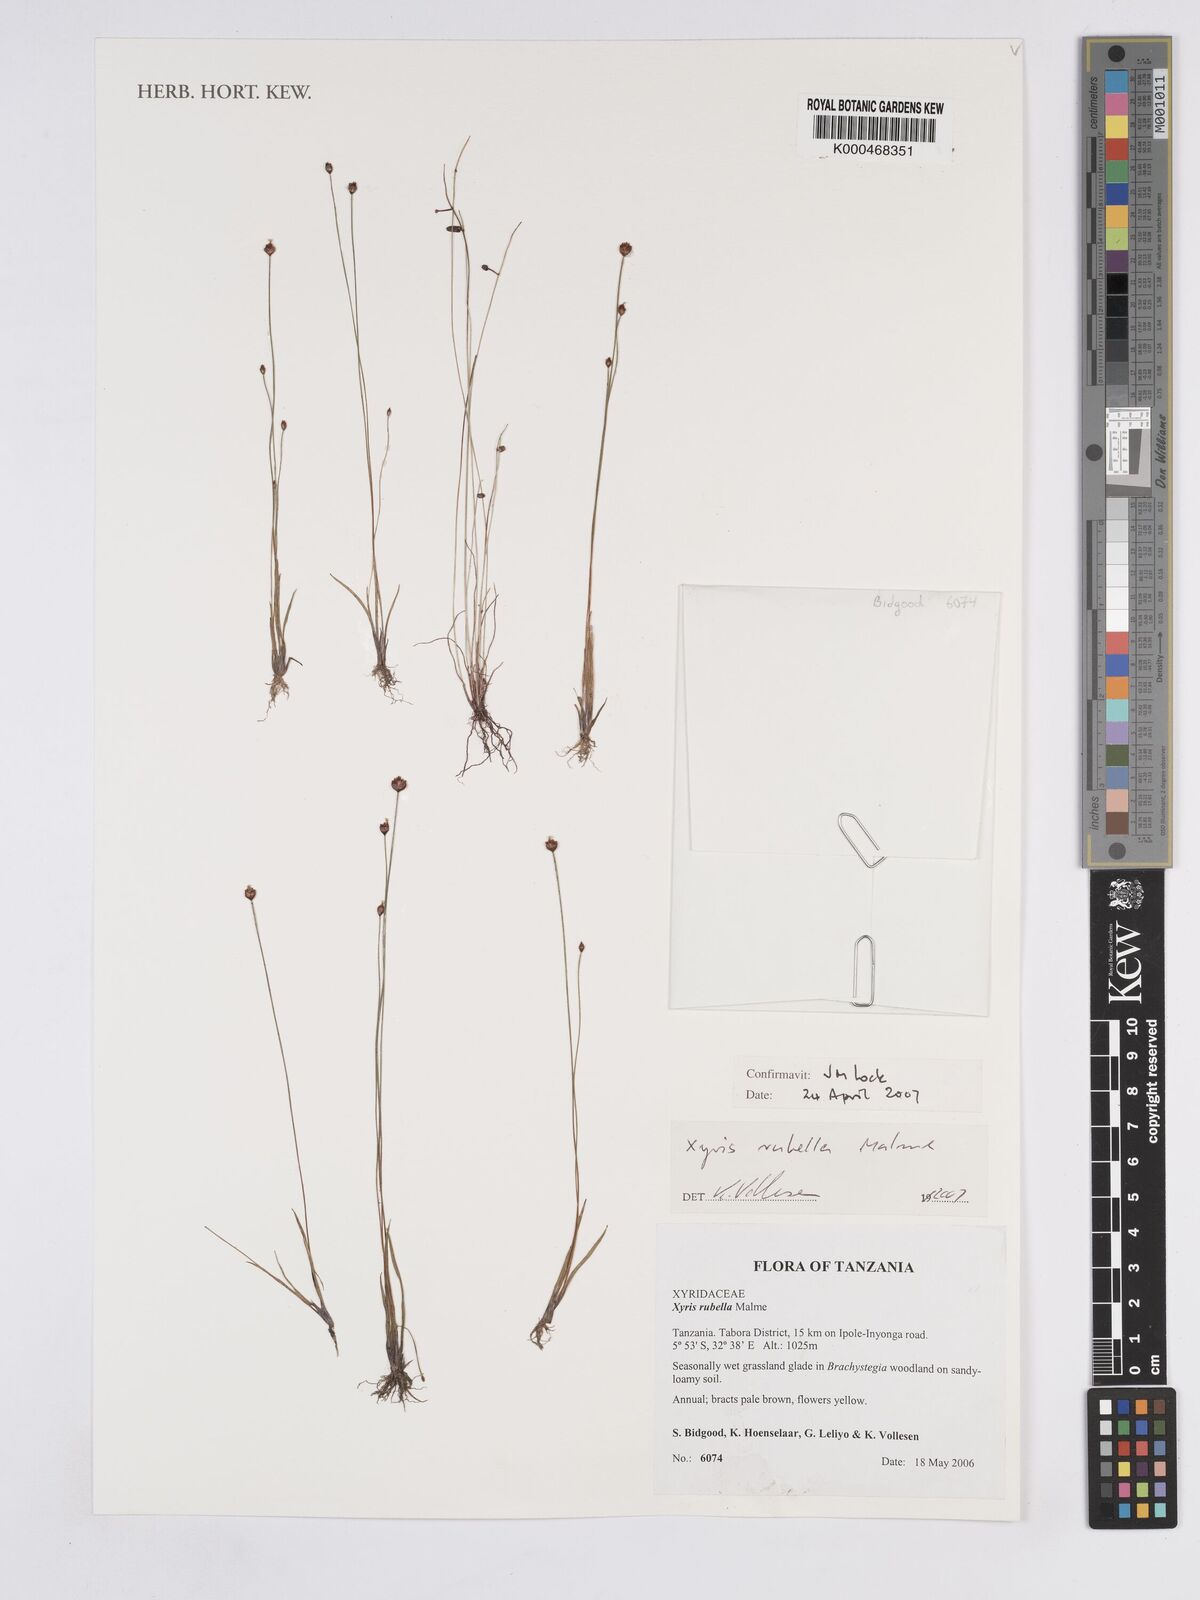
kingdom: Plantae
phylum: Tracheophyta
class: Liliopsida
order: Poales
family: Xyridaceae
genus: Xyris
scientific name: Xyris rubella
